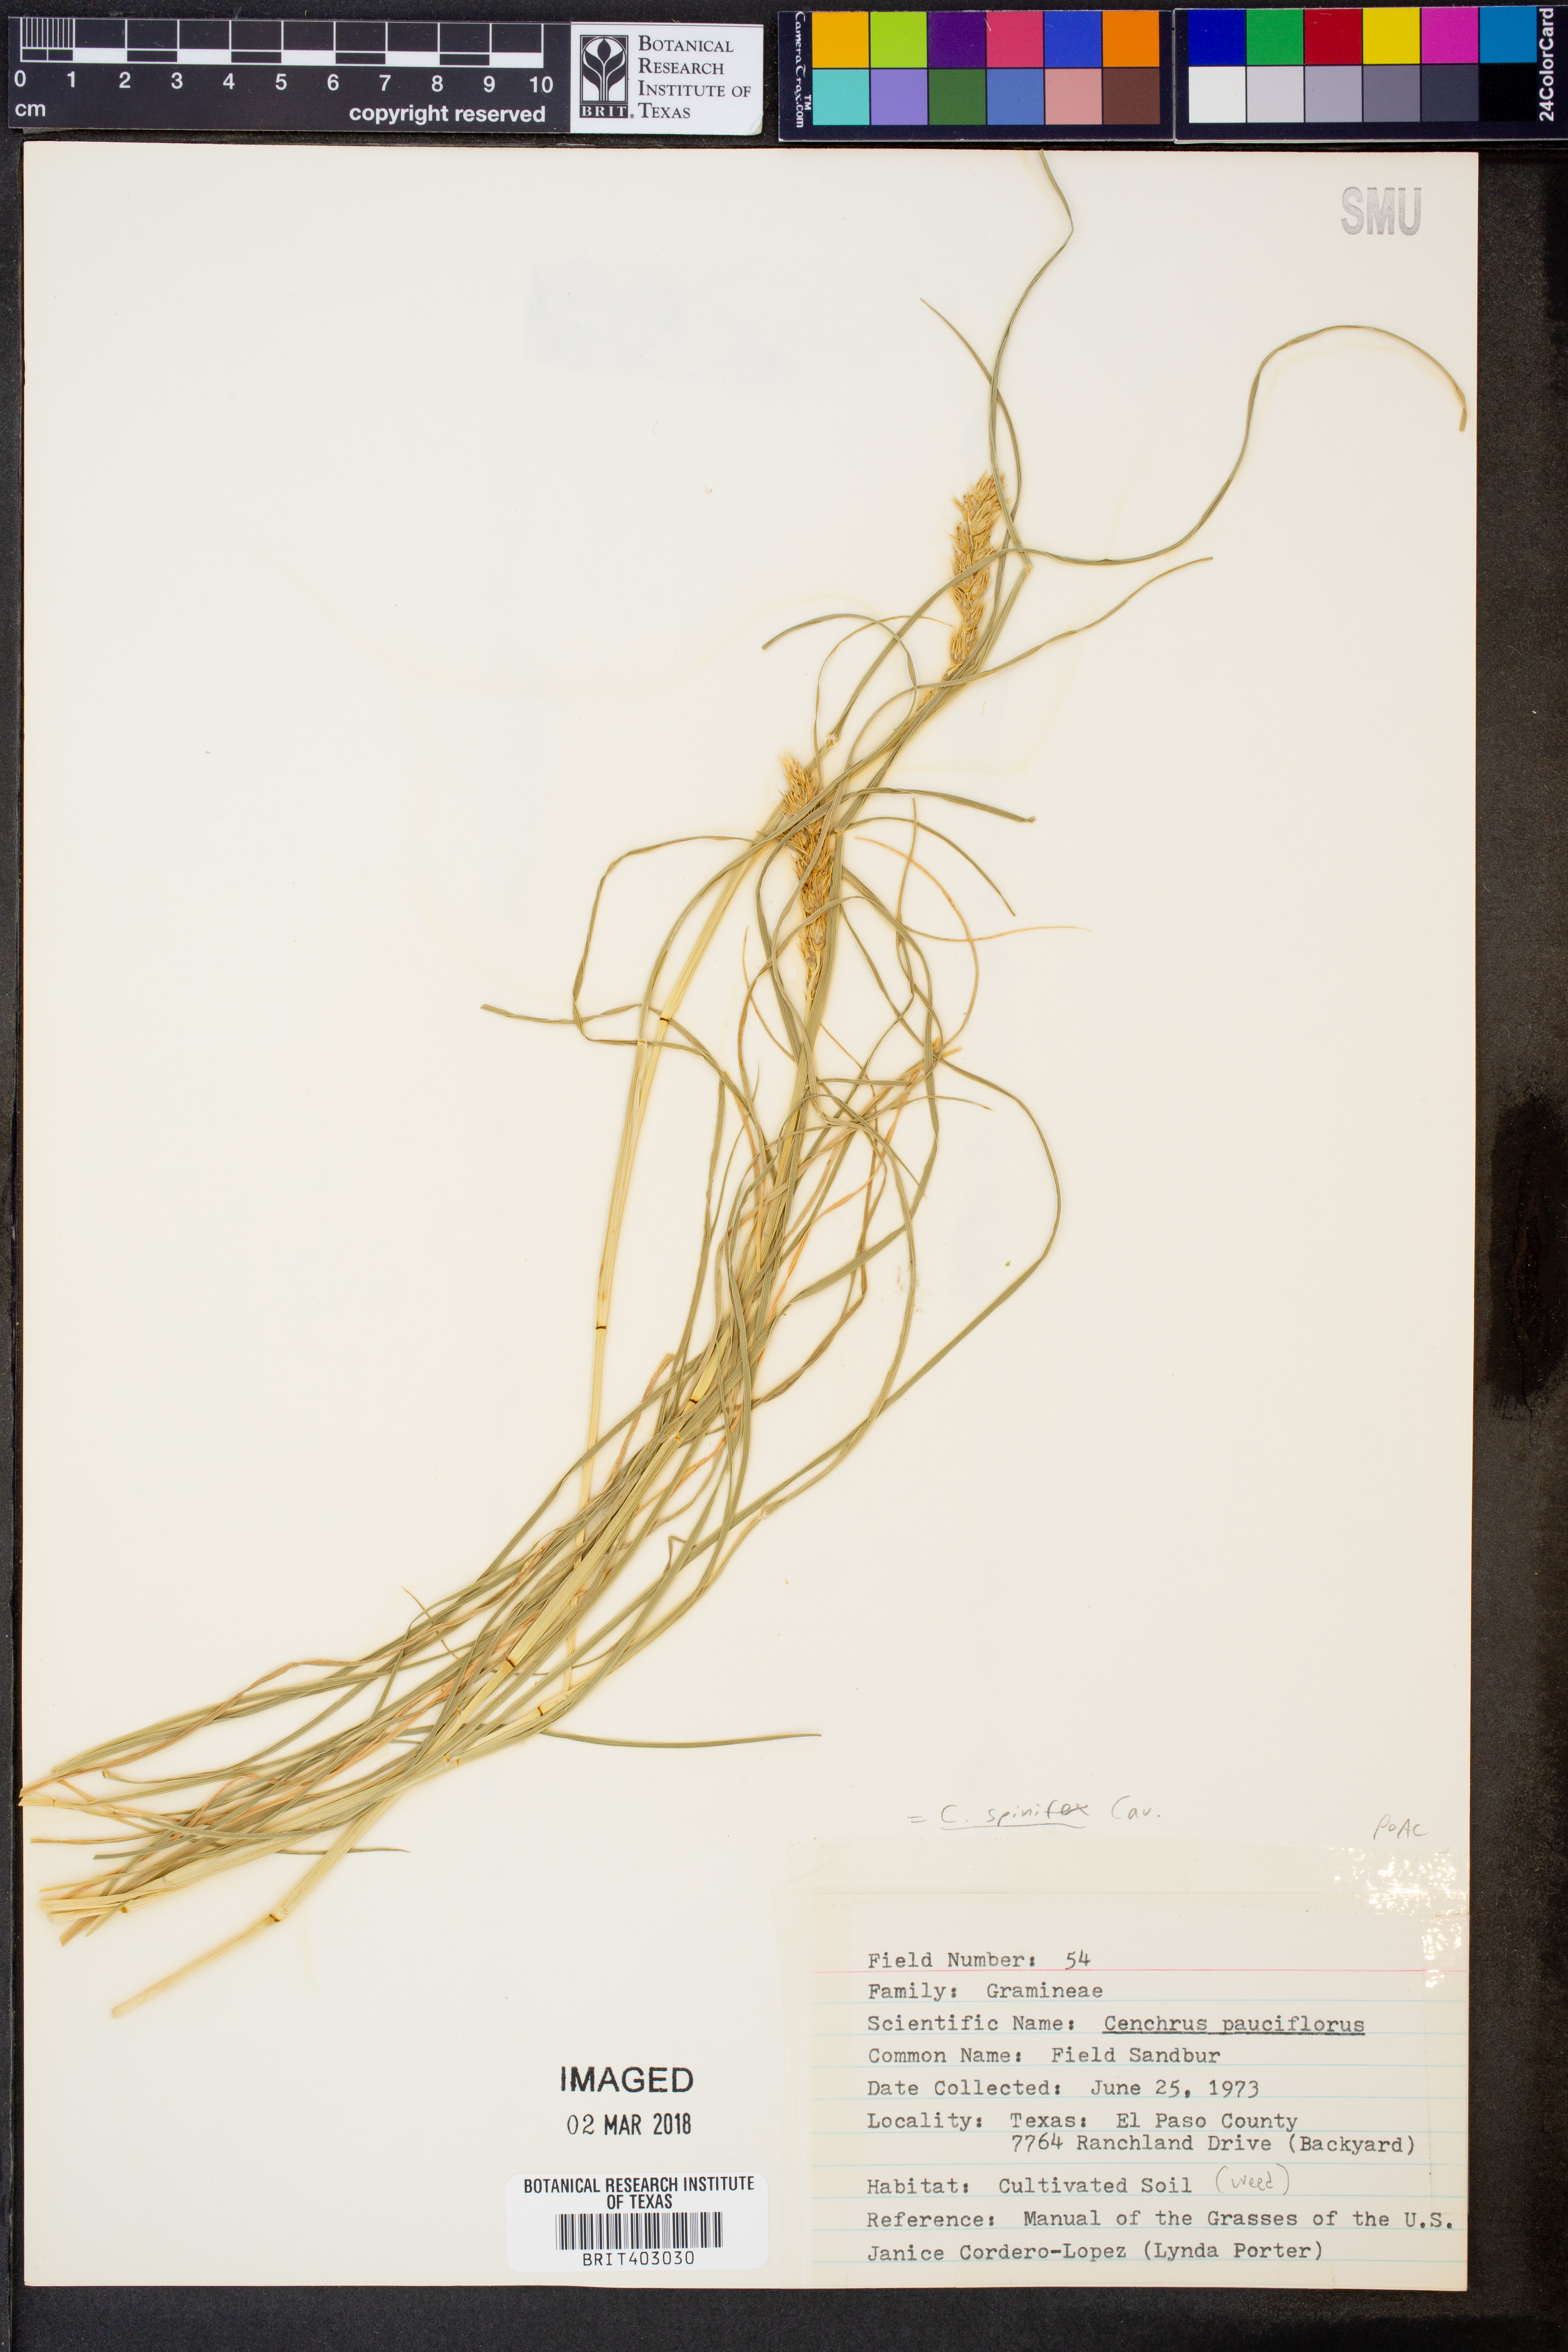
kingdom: Plantae
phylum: Tracheophyta
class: Liliopsida
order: Poales
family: Poaceae
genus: Cenchrus
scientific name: Cenchrus spinifex
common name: Coast sandbur
